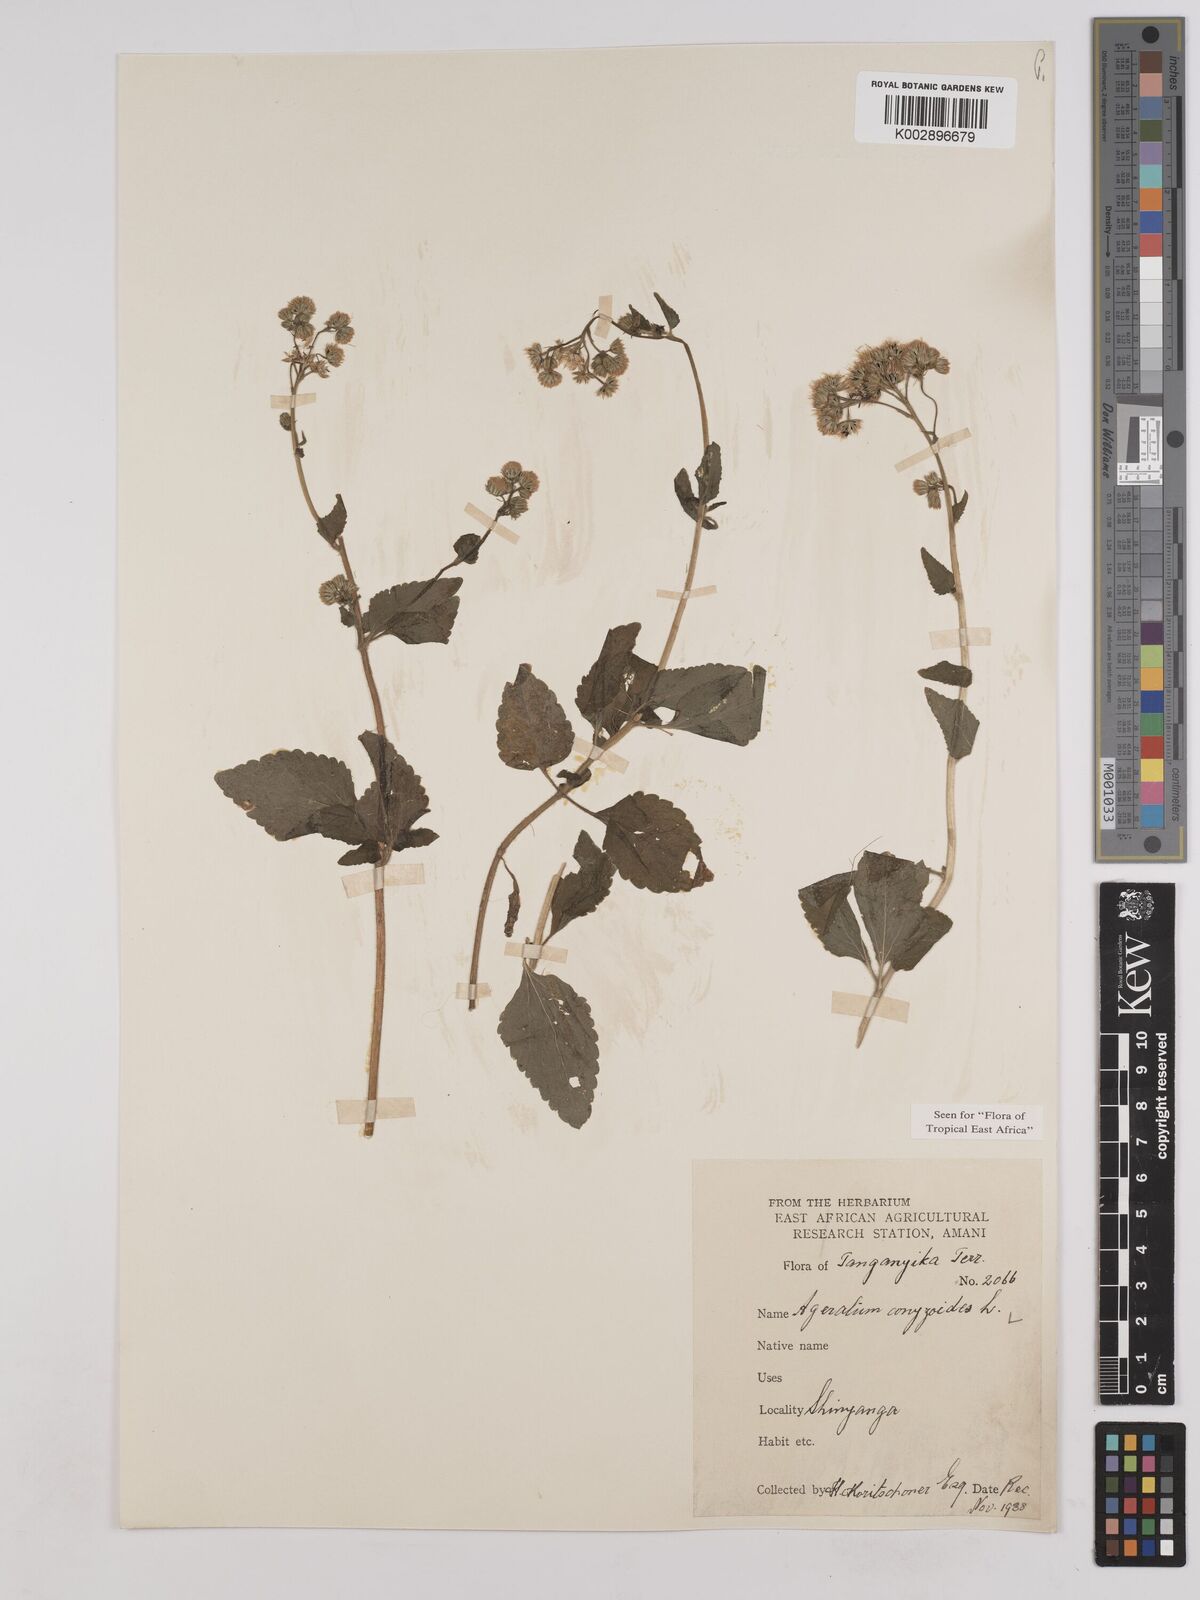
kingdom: Plantae
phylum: Tracheophyta
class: Magnoliopsida
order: Asterales
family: Asteraceae
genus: Ageratum
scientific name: Ageratum conyzoides
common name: Tropical whiteweed
